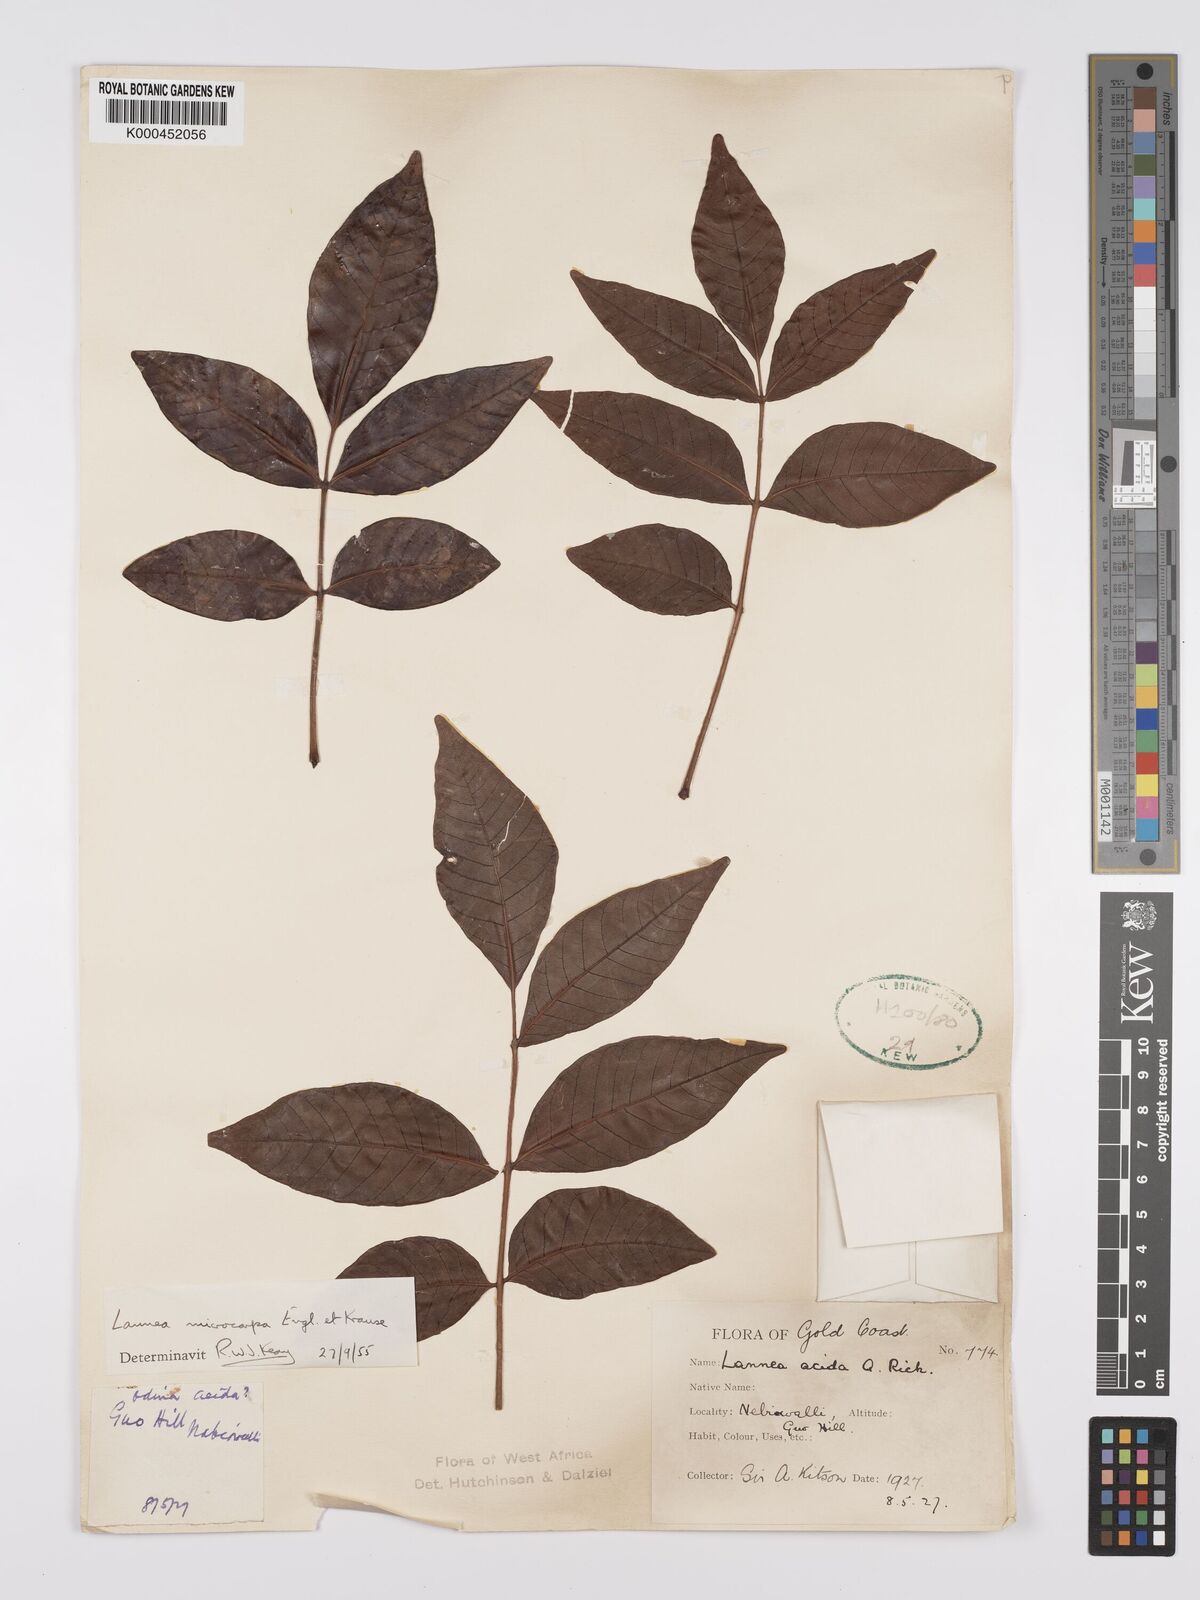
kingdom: Plantae
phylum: Tracheophyta
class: Magnoliopsida
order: Sapindales
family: Anacardiaceae
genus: Lannea
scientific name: Lannea microcarpa
